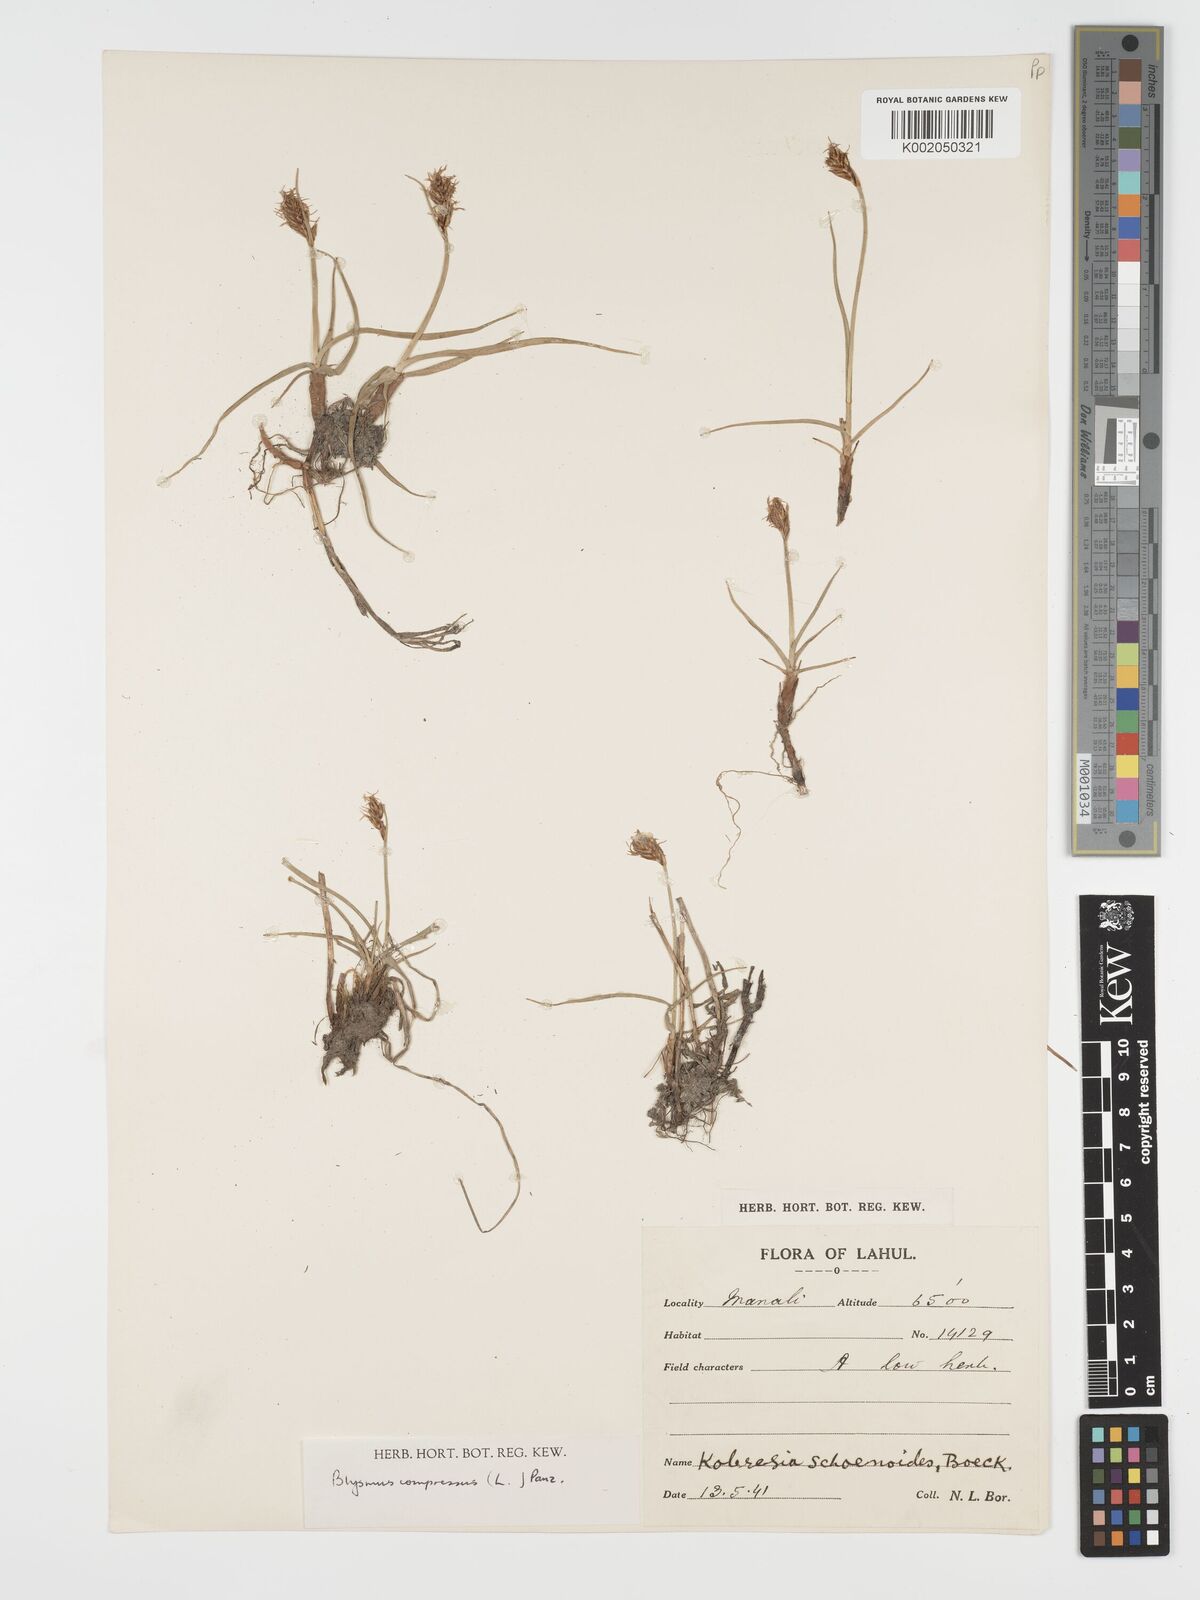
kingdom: Plantae
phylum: Tracheophyta
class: Liliopsida
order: Poales
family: Cyperaceae
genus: Blysmus
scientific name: Blysmus compressus
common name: Flat-sedge
